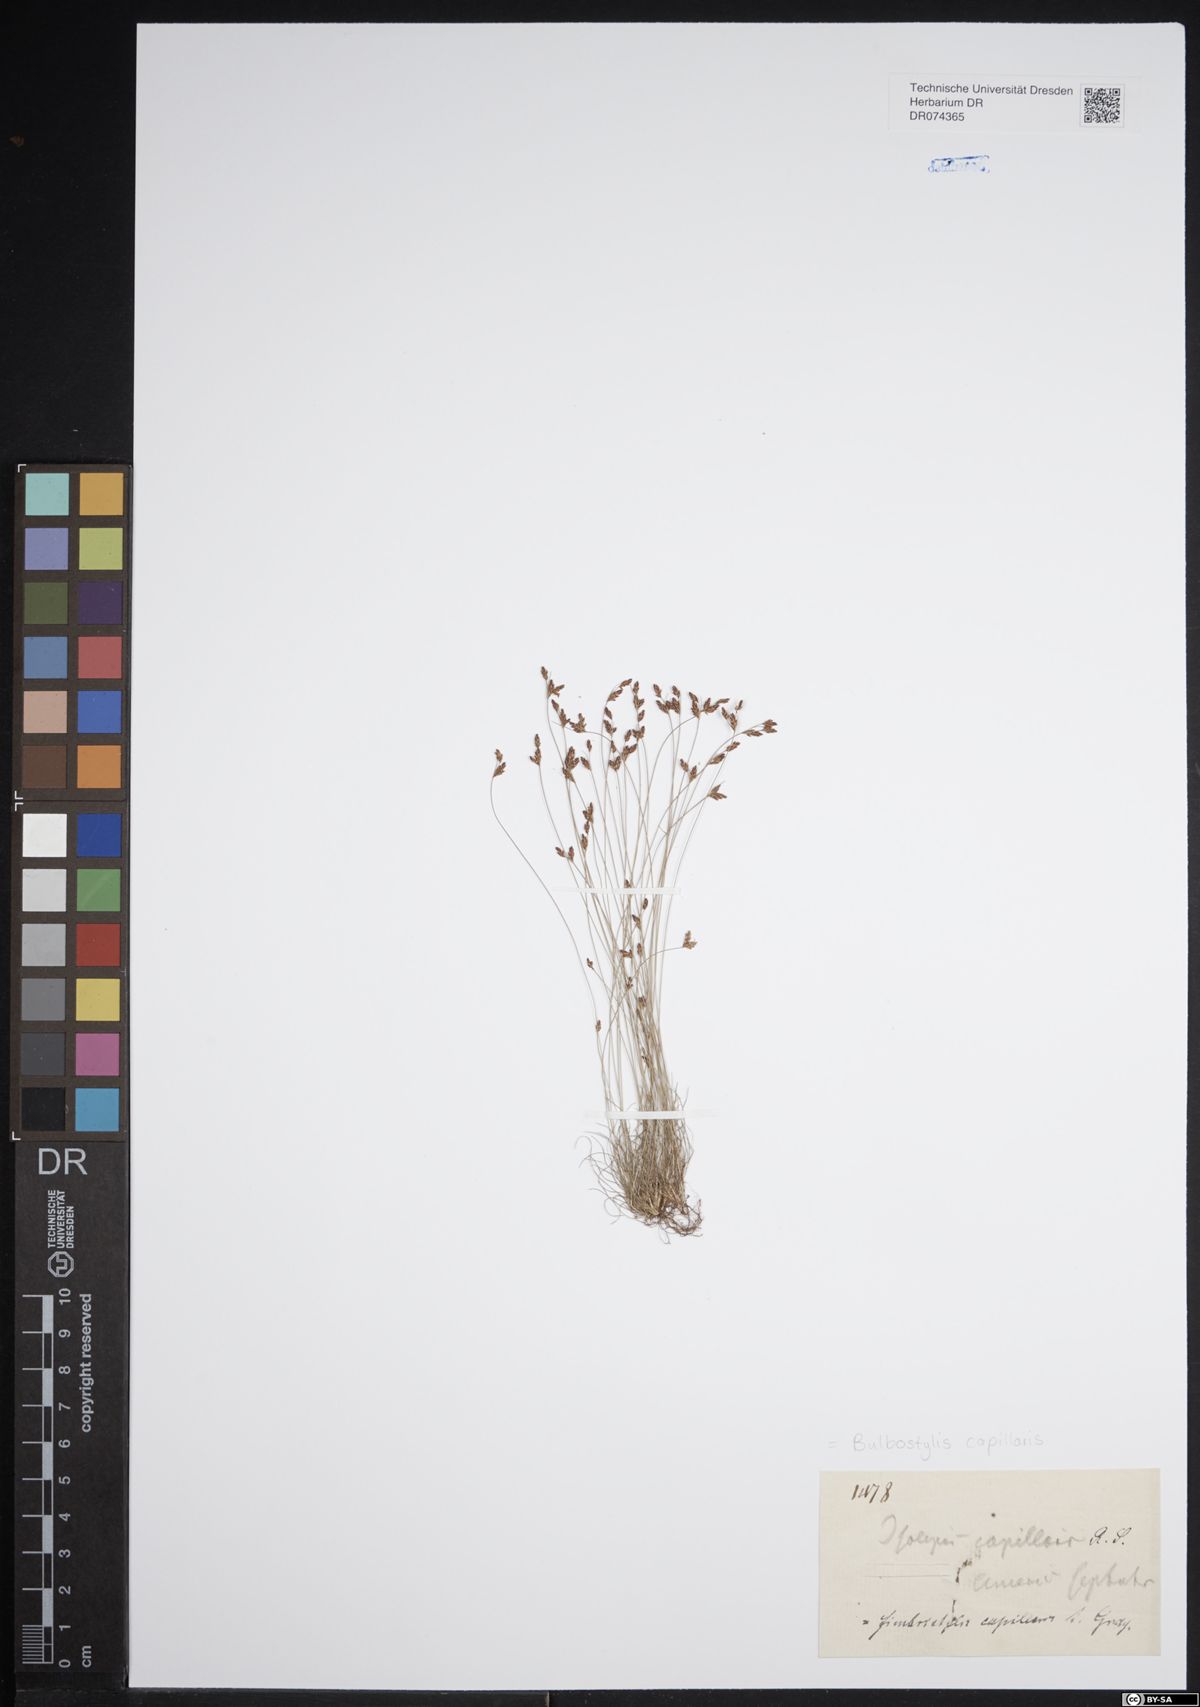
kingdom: Plantae
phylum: Tracheophyta
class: Liliopsida
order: Poales
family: Cyperaceae
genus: Bulbostylis
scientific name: Bulbostylis capillaris
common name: Densetuft hairsedge
